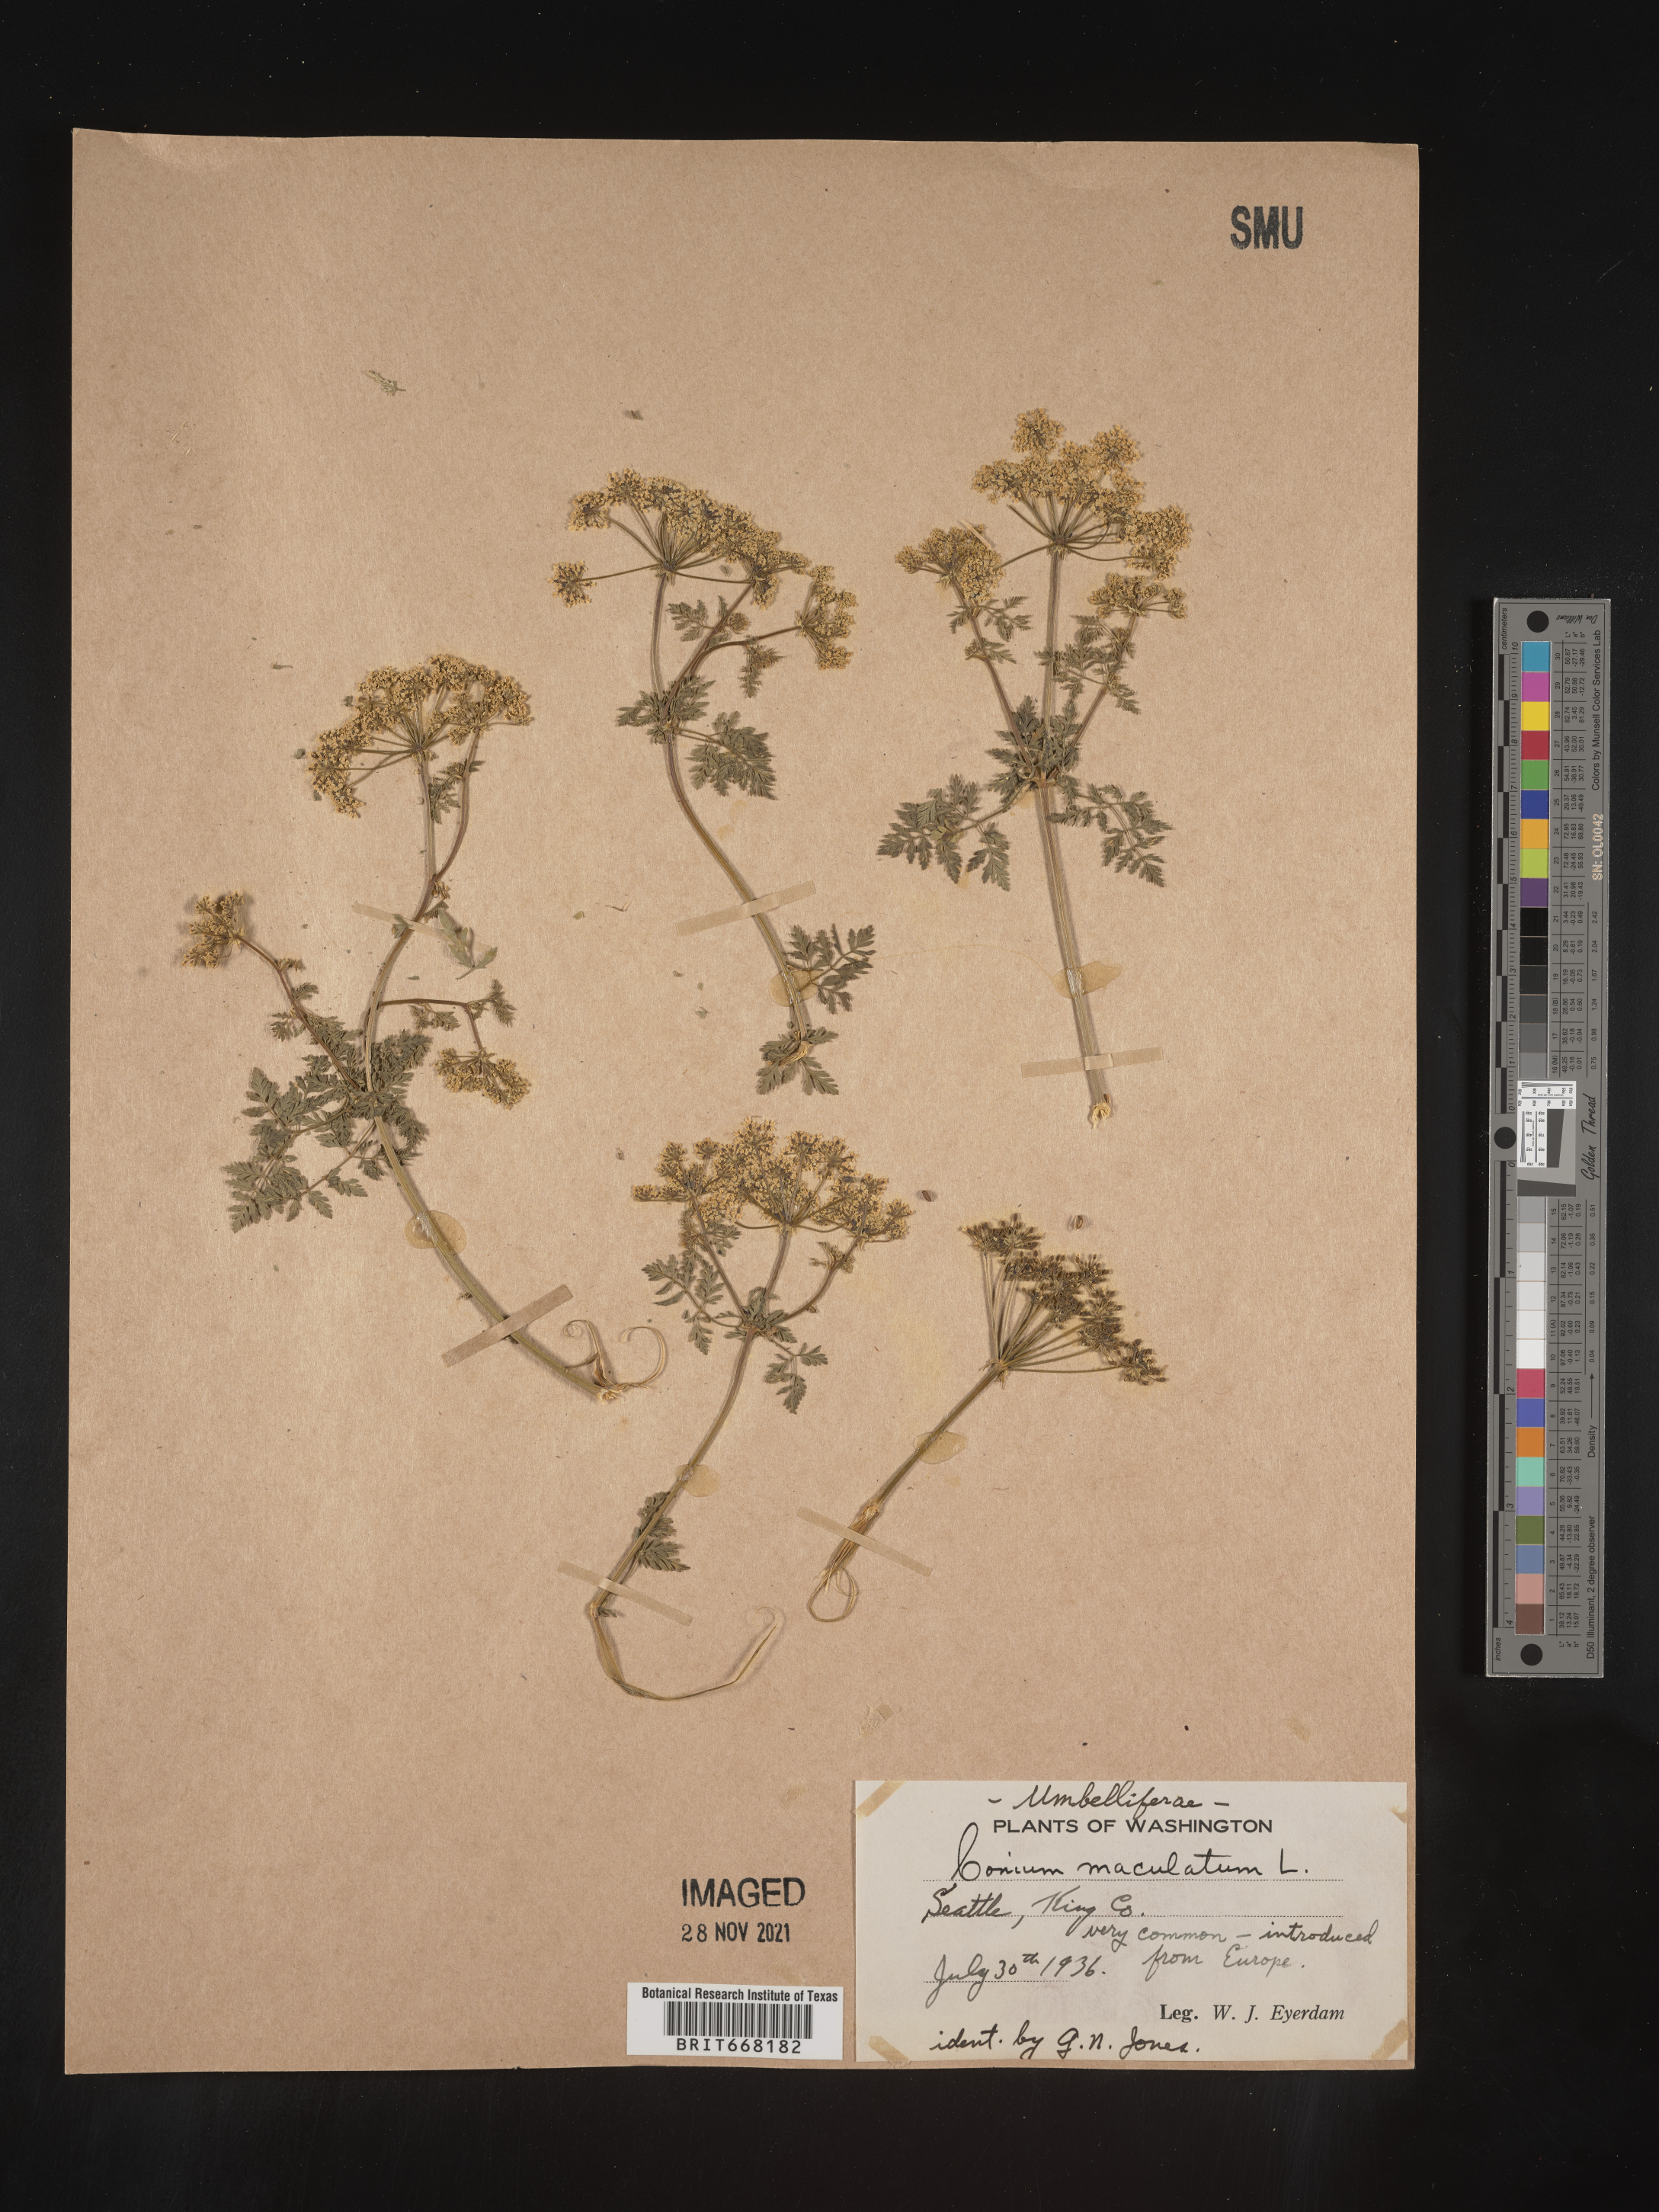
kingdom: Plantae
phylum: Tracheophyta
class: Magnoliopsida
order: Apiales
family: Apiaceae
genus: Conium
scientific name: Conium maculatum
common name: Hemlock
